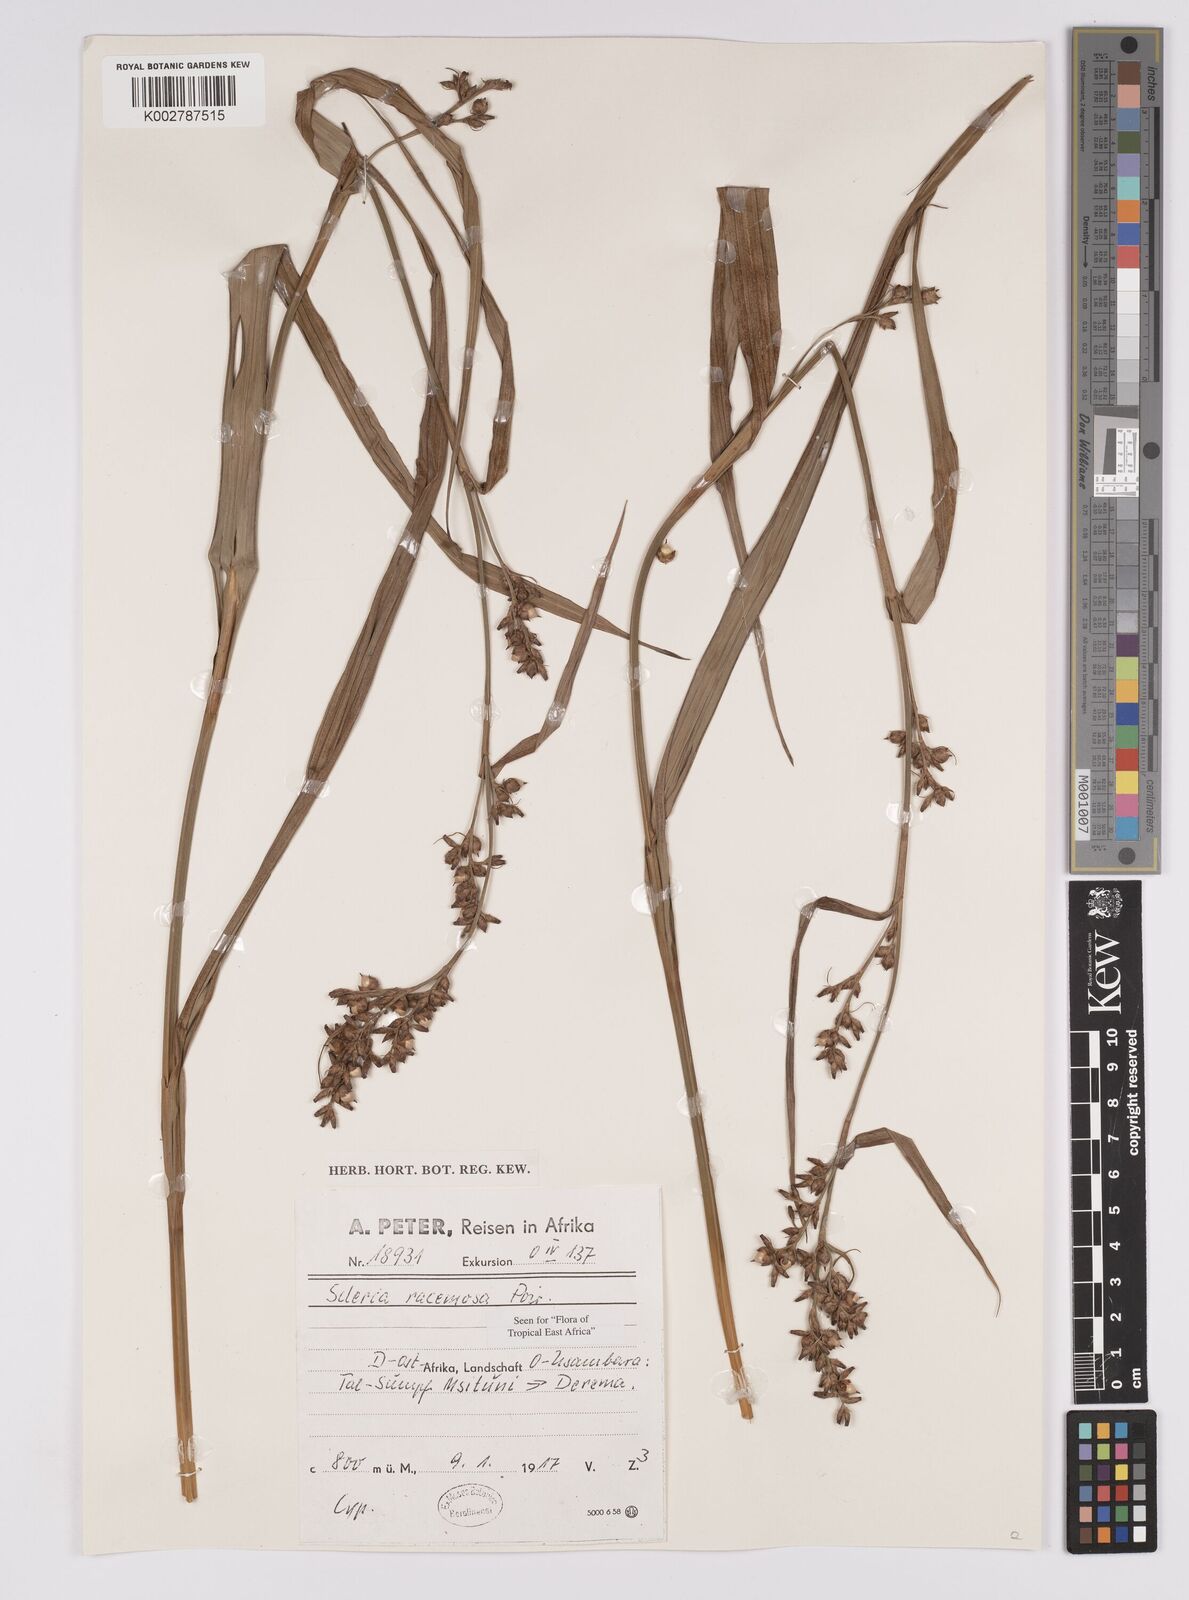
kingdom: Plantae
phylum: Tracheophyta
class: Liliopsida
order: Poales
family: Cyperaceae
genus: Scleria
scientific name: Scleria racemosa
